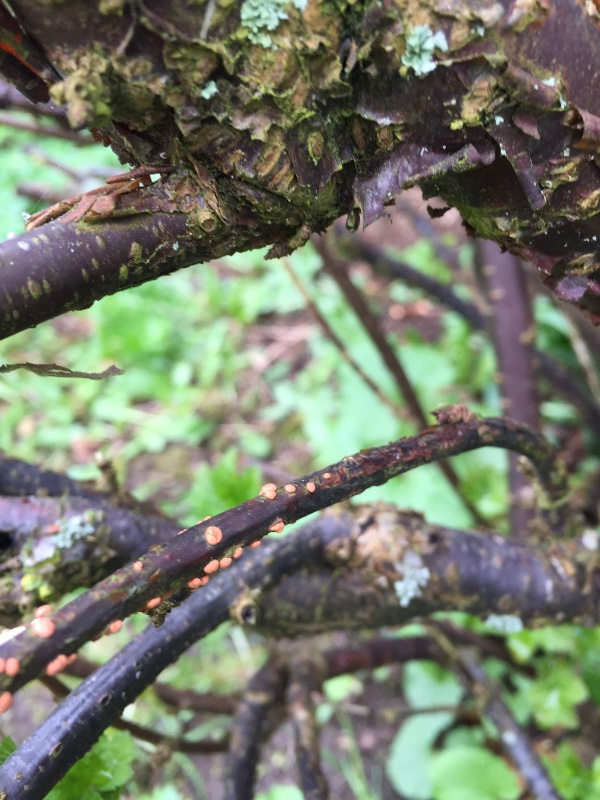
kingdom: Fungi
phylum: Ascomycota
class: Sordariomycetes
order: Hypocreales
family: Nectriaceae
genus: Nectria
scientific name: Nectria cinnabarina
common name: almindelig cinnobersvamp
